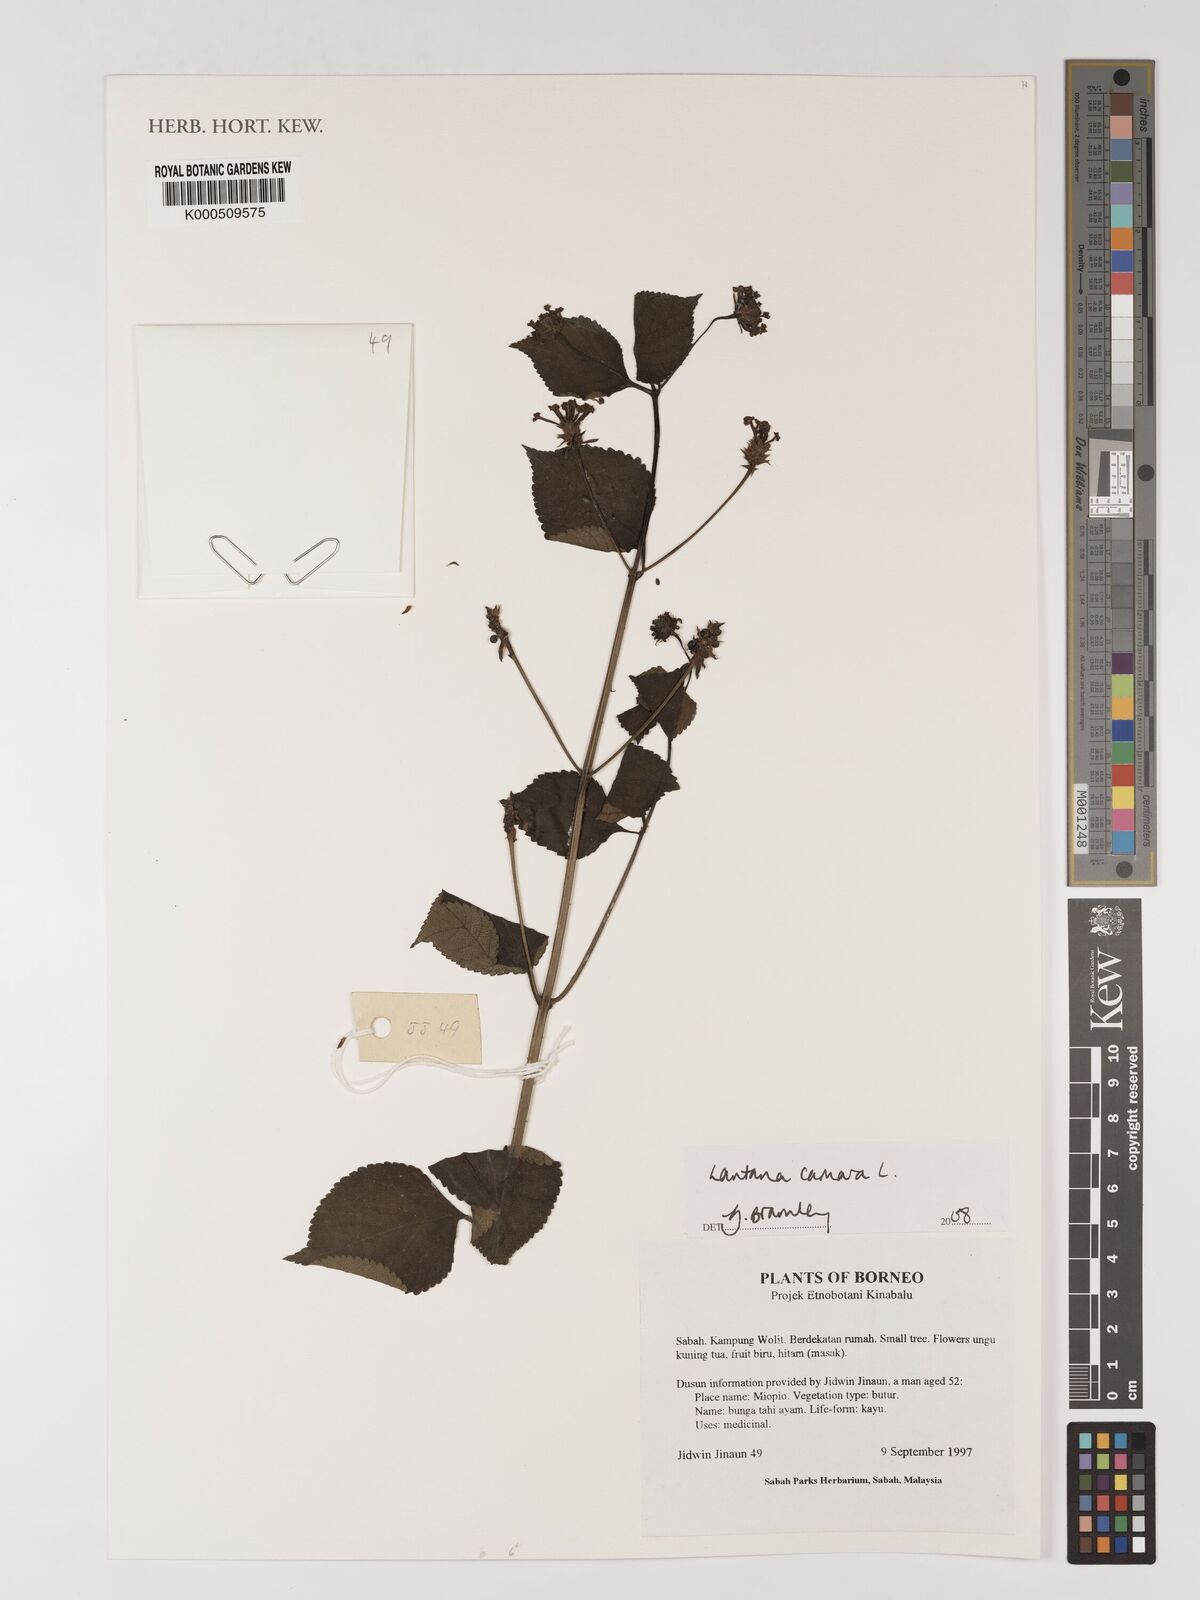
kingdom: Plantae
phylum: Tracheophyta
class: Magnoliopsida
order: Lamiales
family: Verbenaceae
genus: Lantana
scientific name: Lantana camara
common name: Lantana
